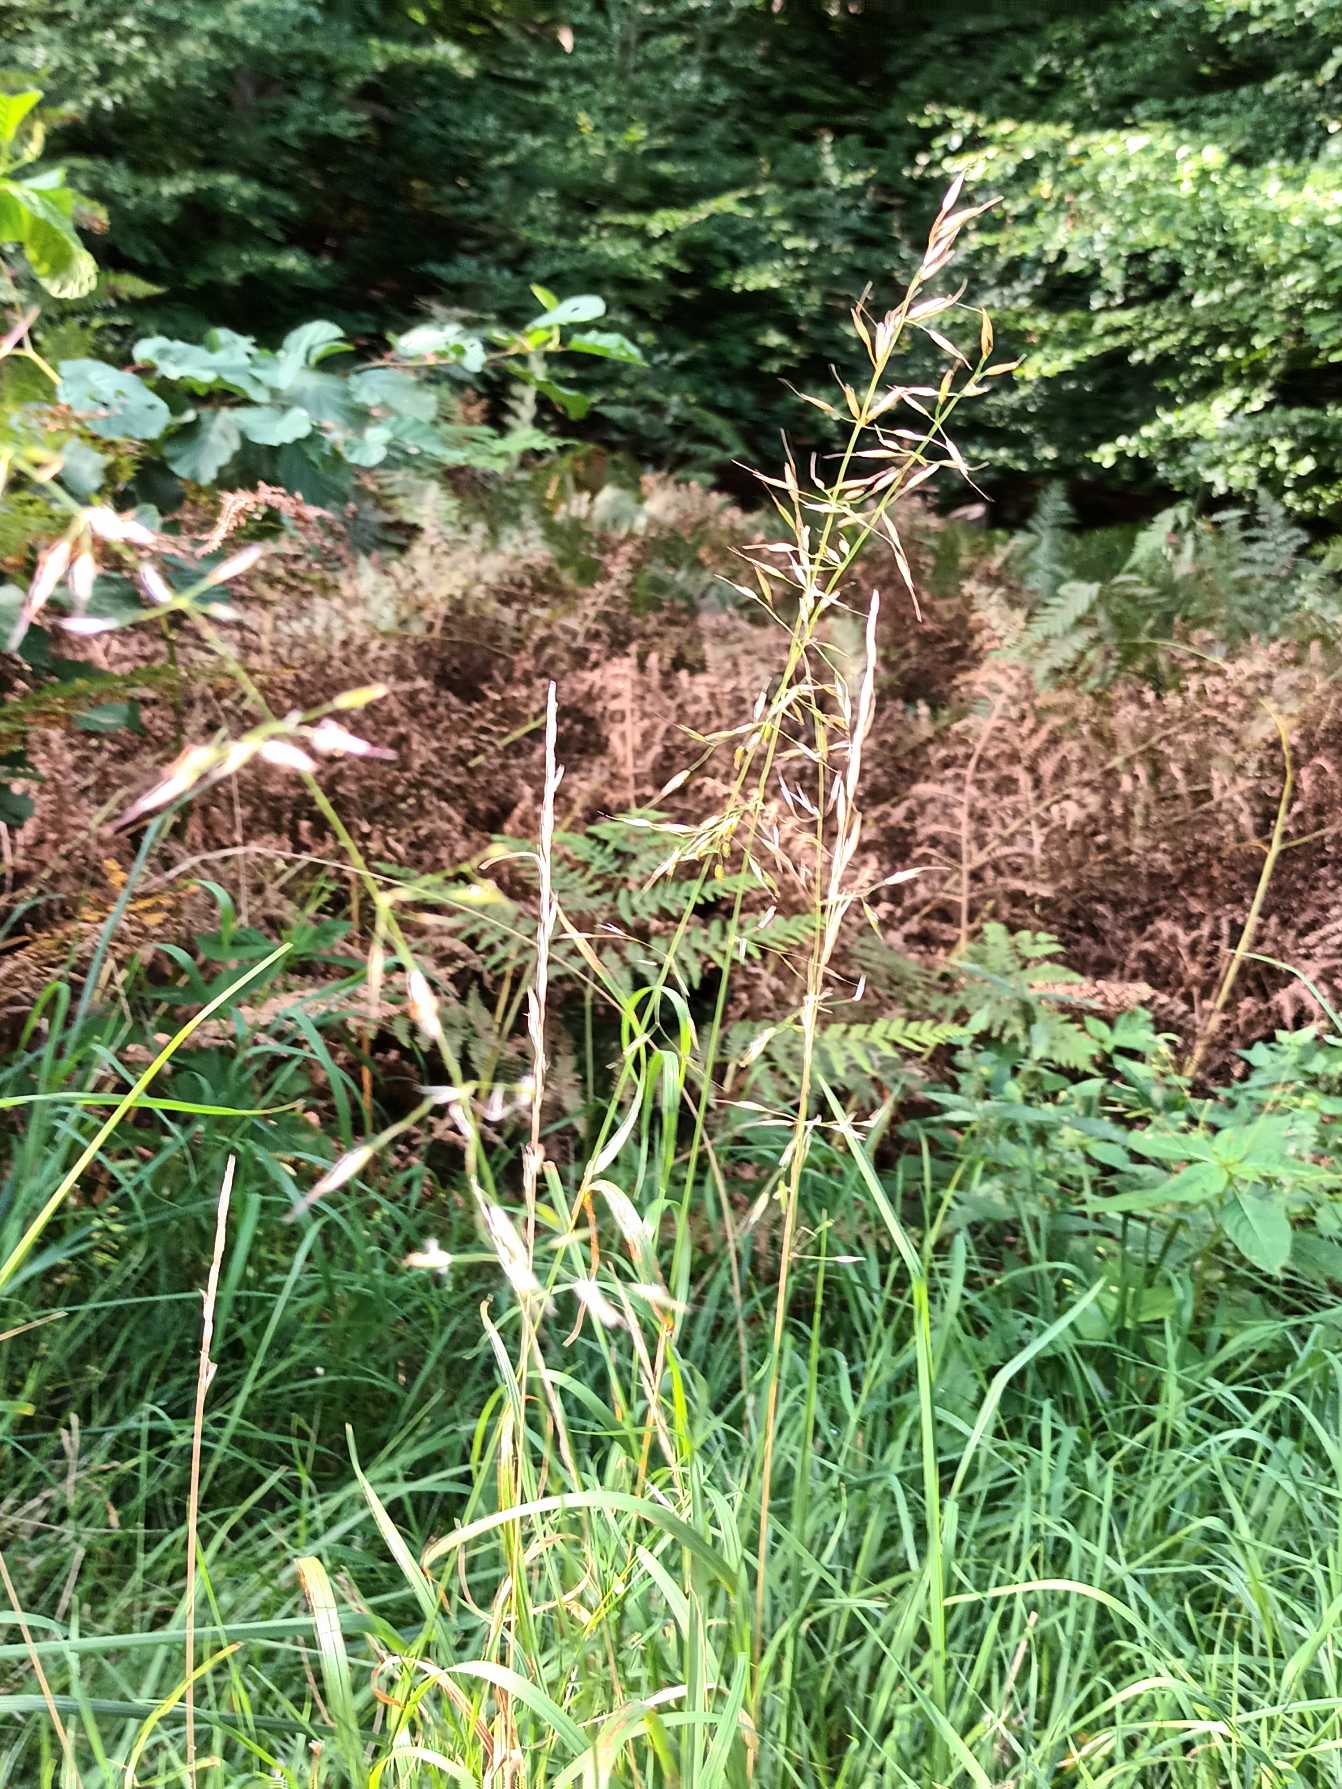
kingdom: Plantae
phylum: Tracheophyta
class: Liliopsida
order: Poales
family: Poaceae
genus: Arrhenatherum
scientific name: Arrhenatherum elatius
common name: Draphavre
